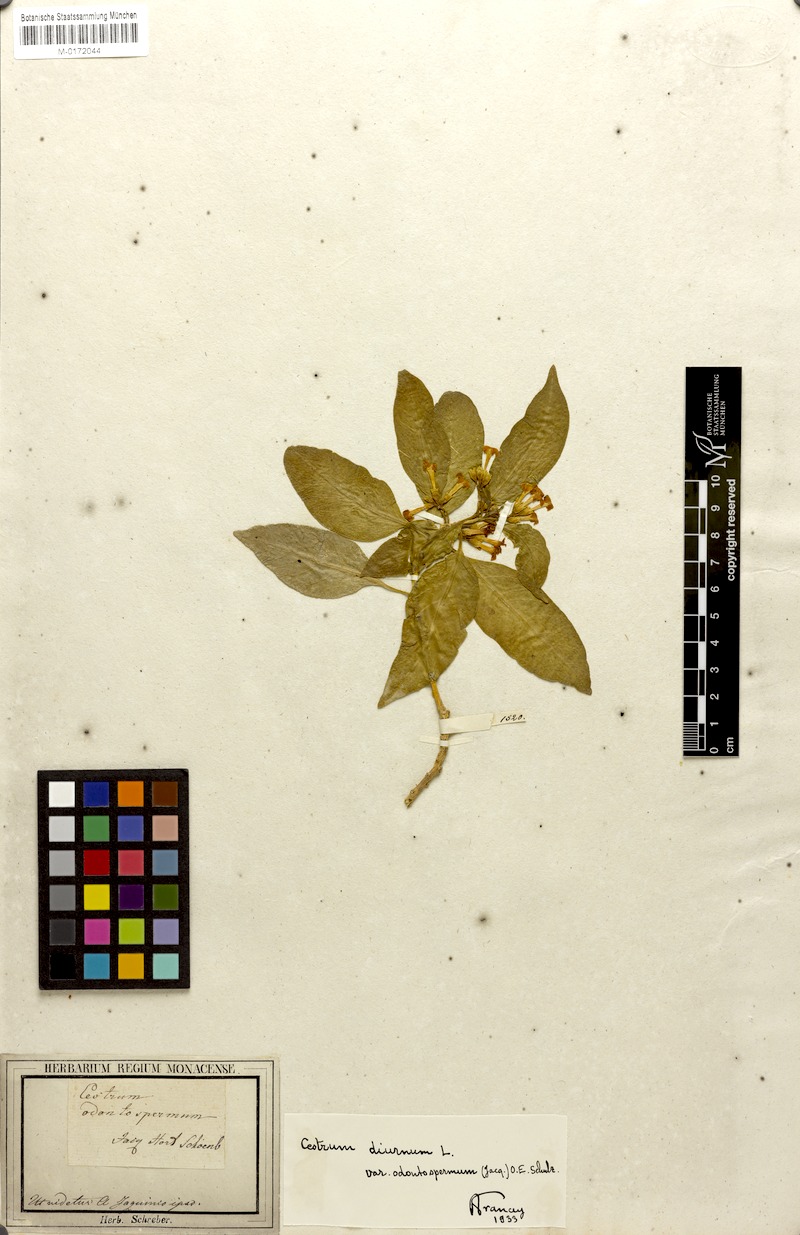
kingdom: Plantae
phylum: Tracheophyta
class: Magnoliopsida
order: Solanales
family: Solanaceae
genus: Cestrum
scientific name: Cestrum diurnum
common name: Day jessamine
